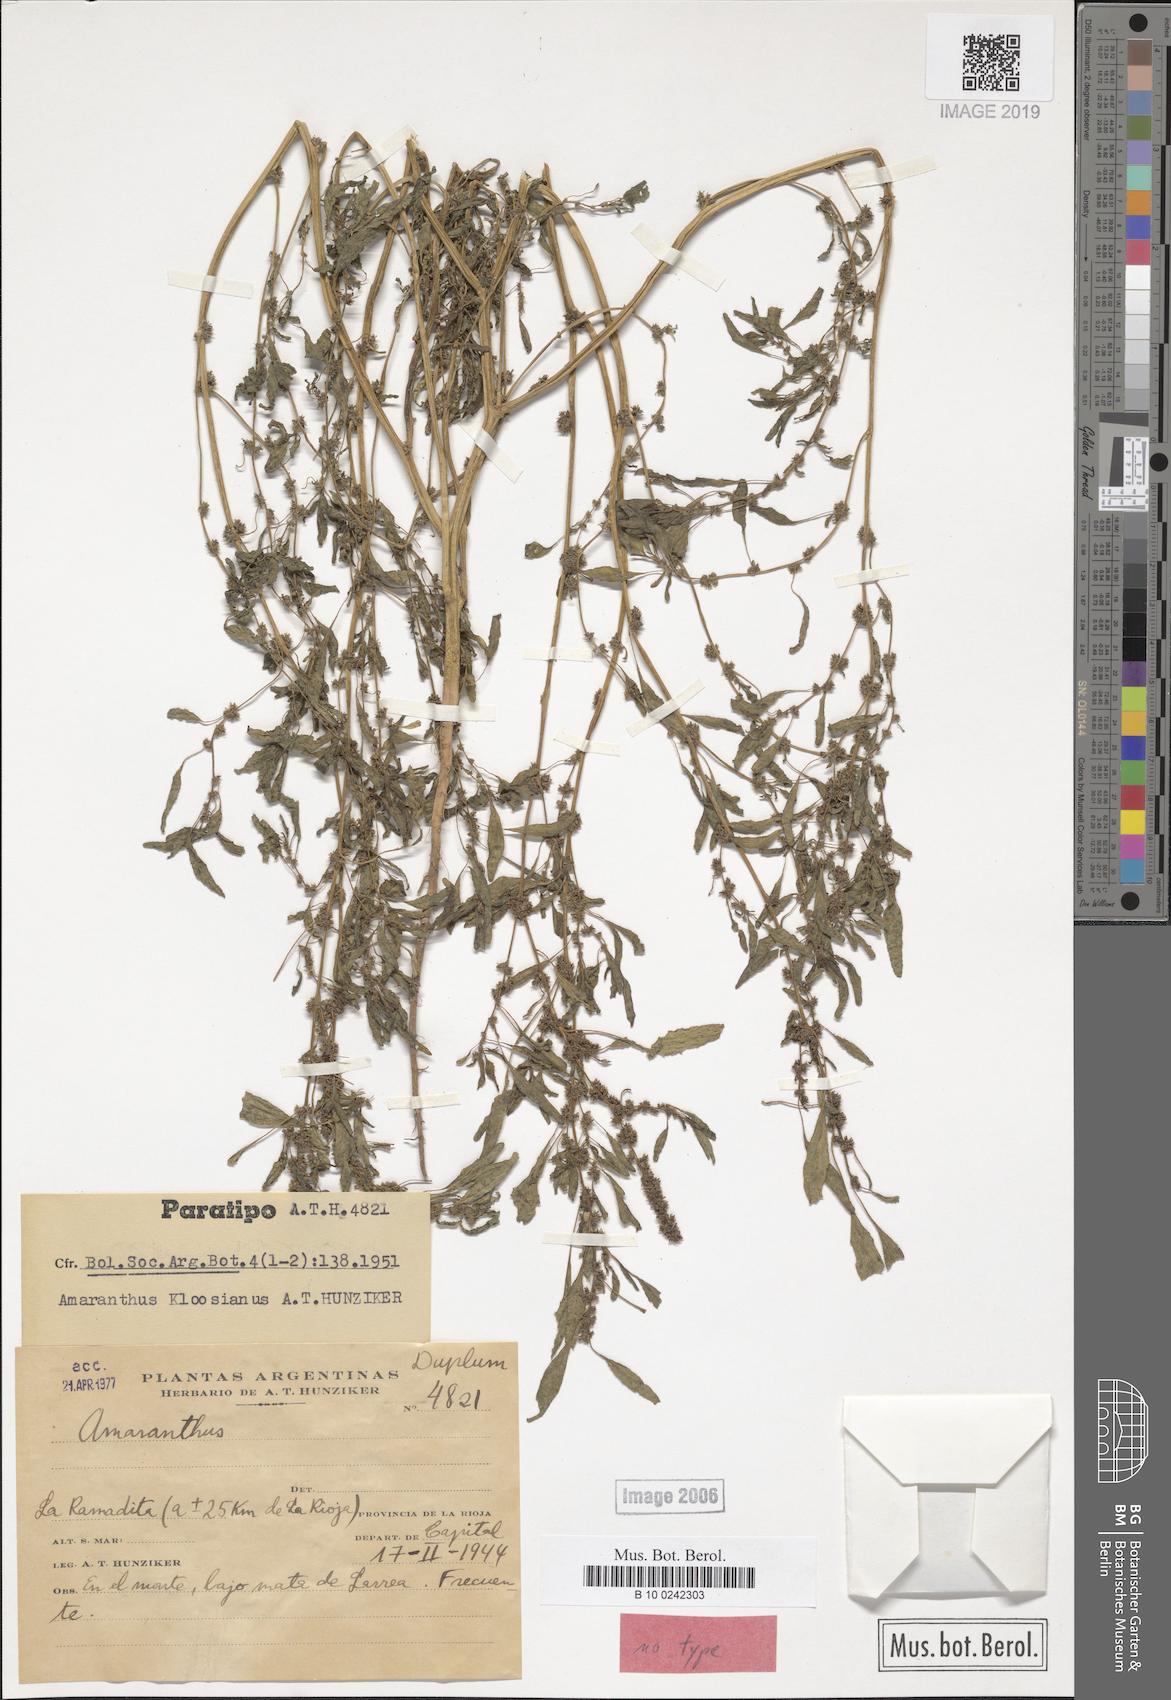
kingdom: Plantae
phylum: Tracheophyta
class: Magnoliopsida
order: Caryophyllales
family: Amaranthaceae
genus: Amaranthus
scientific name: Amaranthus kloosianus
